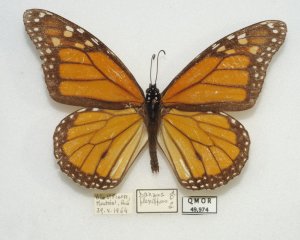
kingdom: Animalia
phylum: Arthropoda
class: Insecta
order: Lepidoptera
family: Nymphalidae
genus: Danaus
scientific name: Danaus plexippus
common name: Monarch
